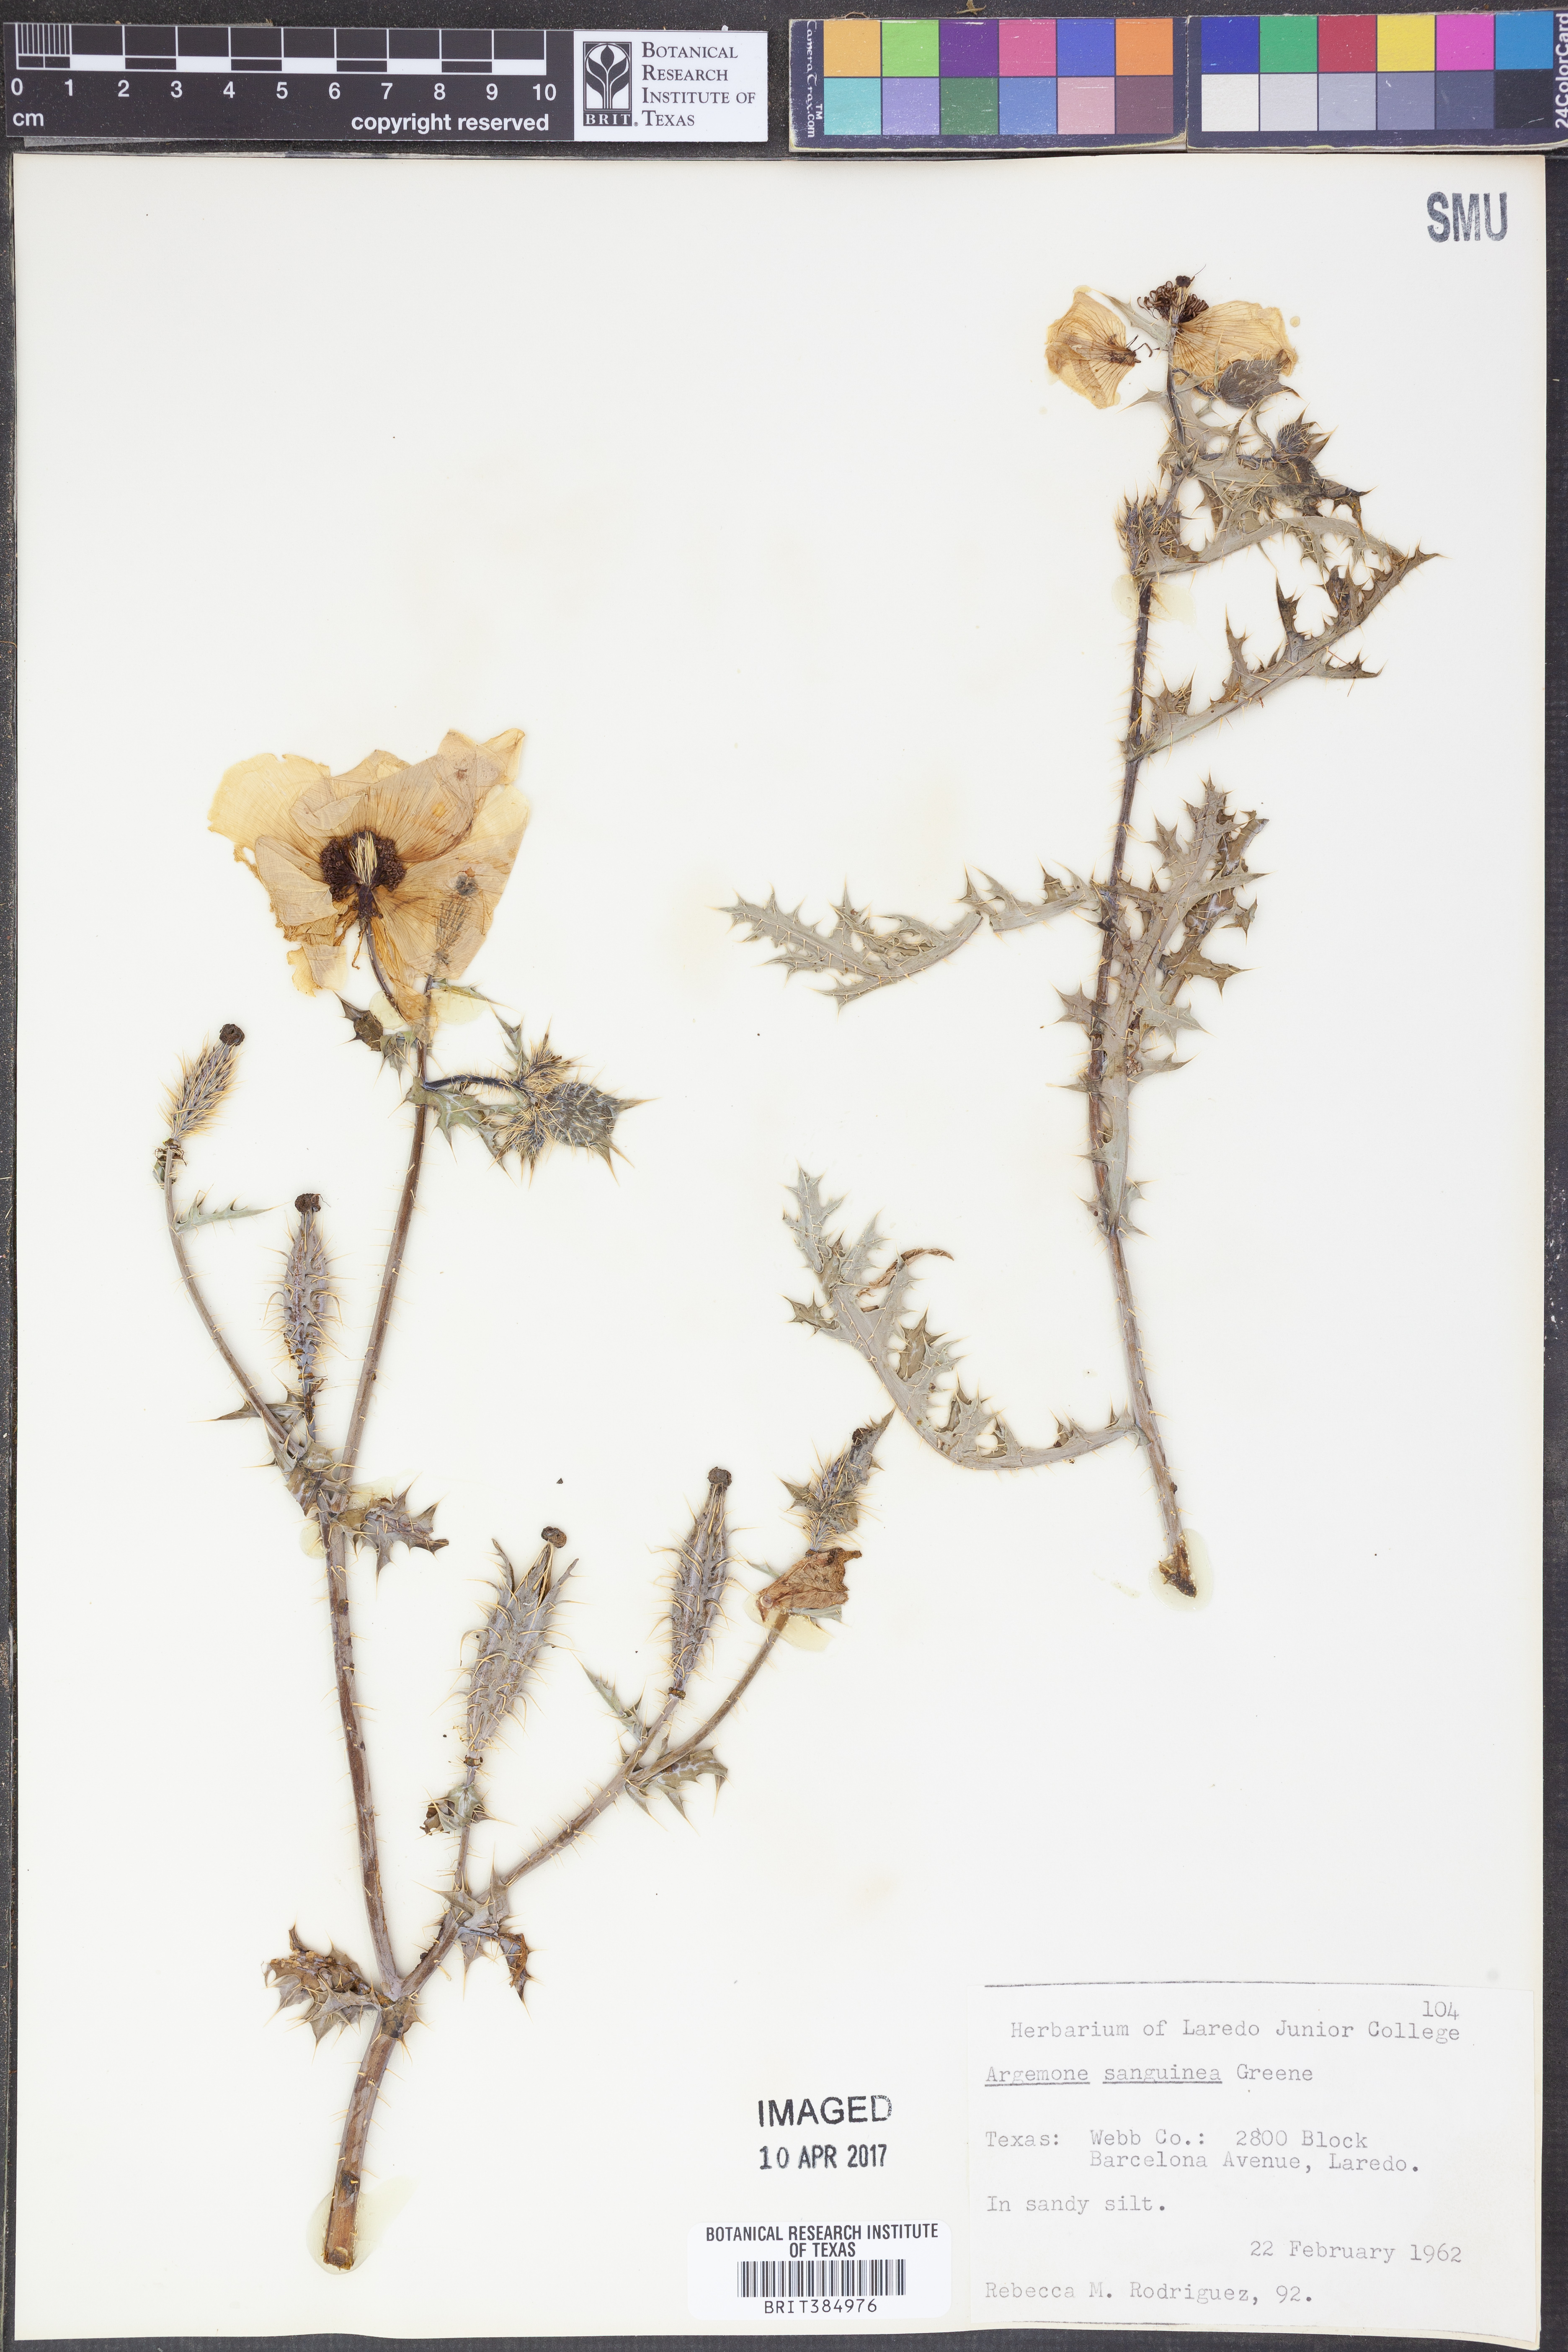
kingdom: Plantae
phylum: Tracheophyta
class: Magnoliopsida
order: Ranunculales
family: Papaveraceae
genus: Argemone
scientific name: Argemone sanguinea
